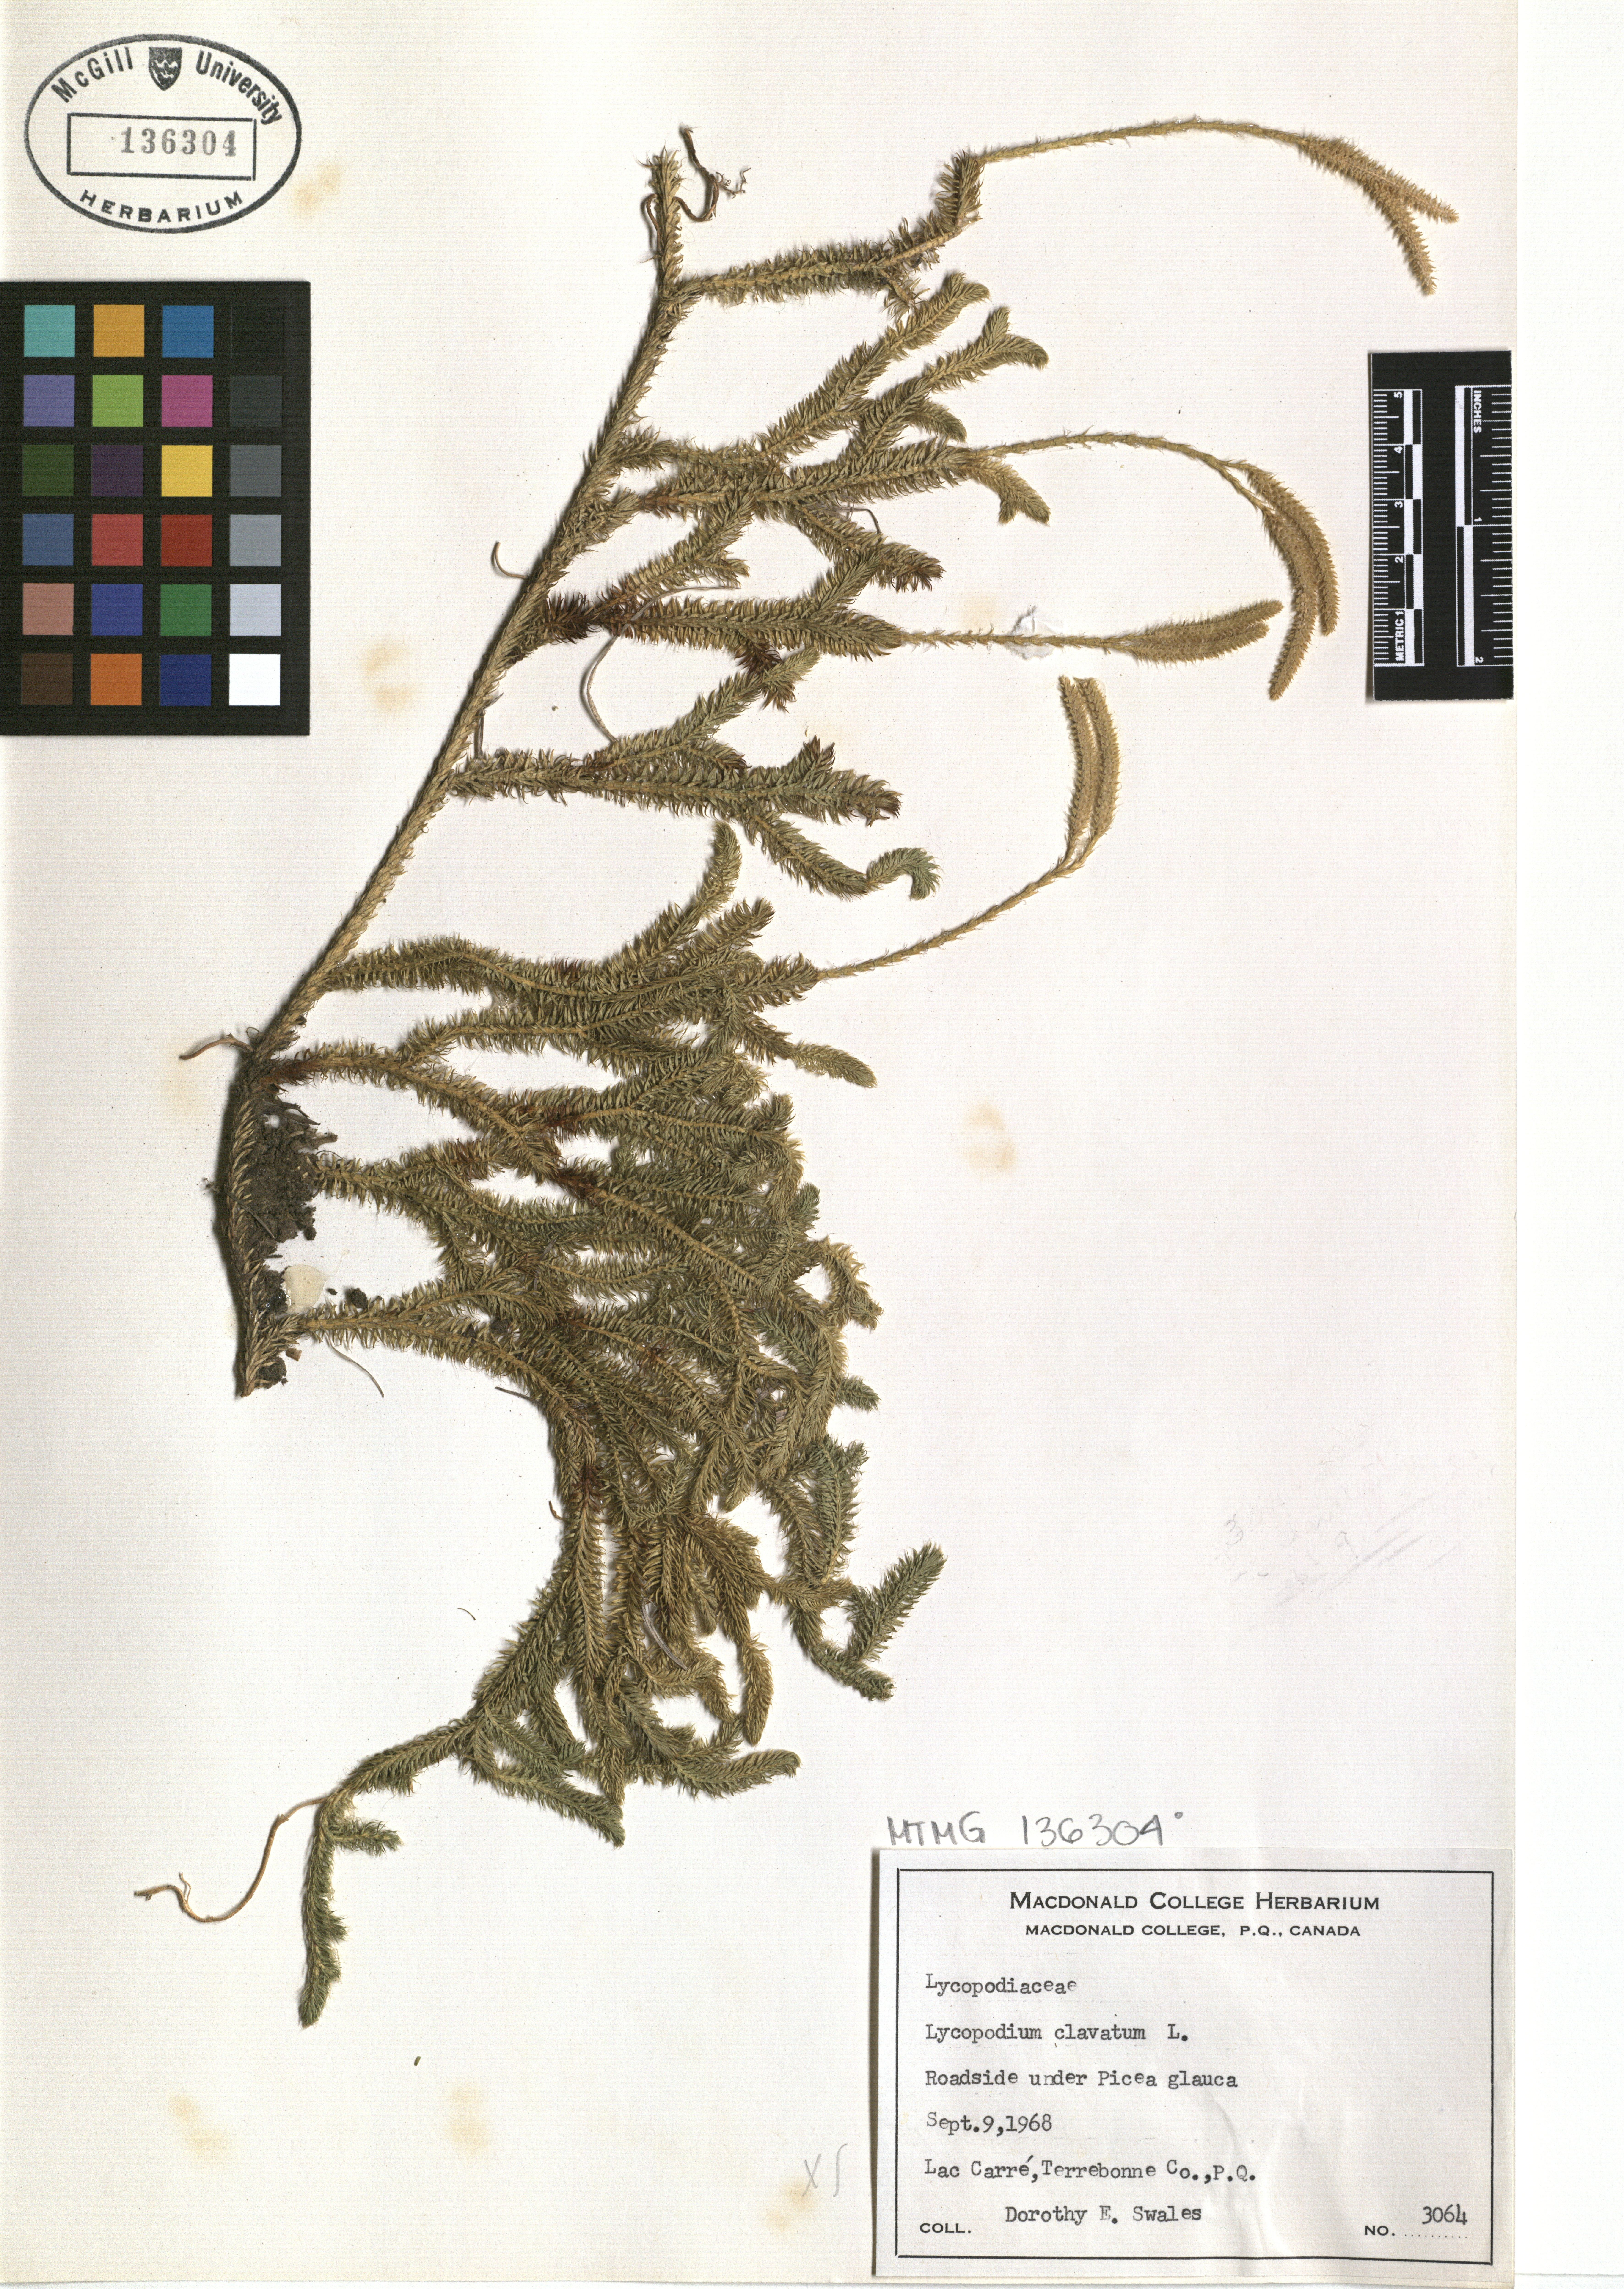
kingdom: Plantae
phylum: Tracheophyta
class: Lycopodiopsida
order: Lycopodiales
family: Lycopodiaceae
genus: Lycopodium
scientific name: Lycopodium clavatum
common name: Stag's-horn clubmoss
